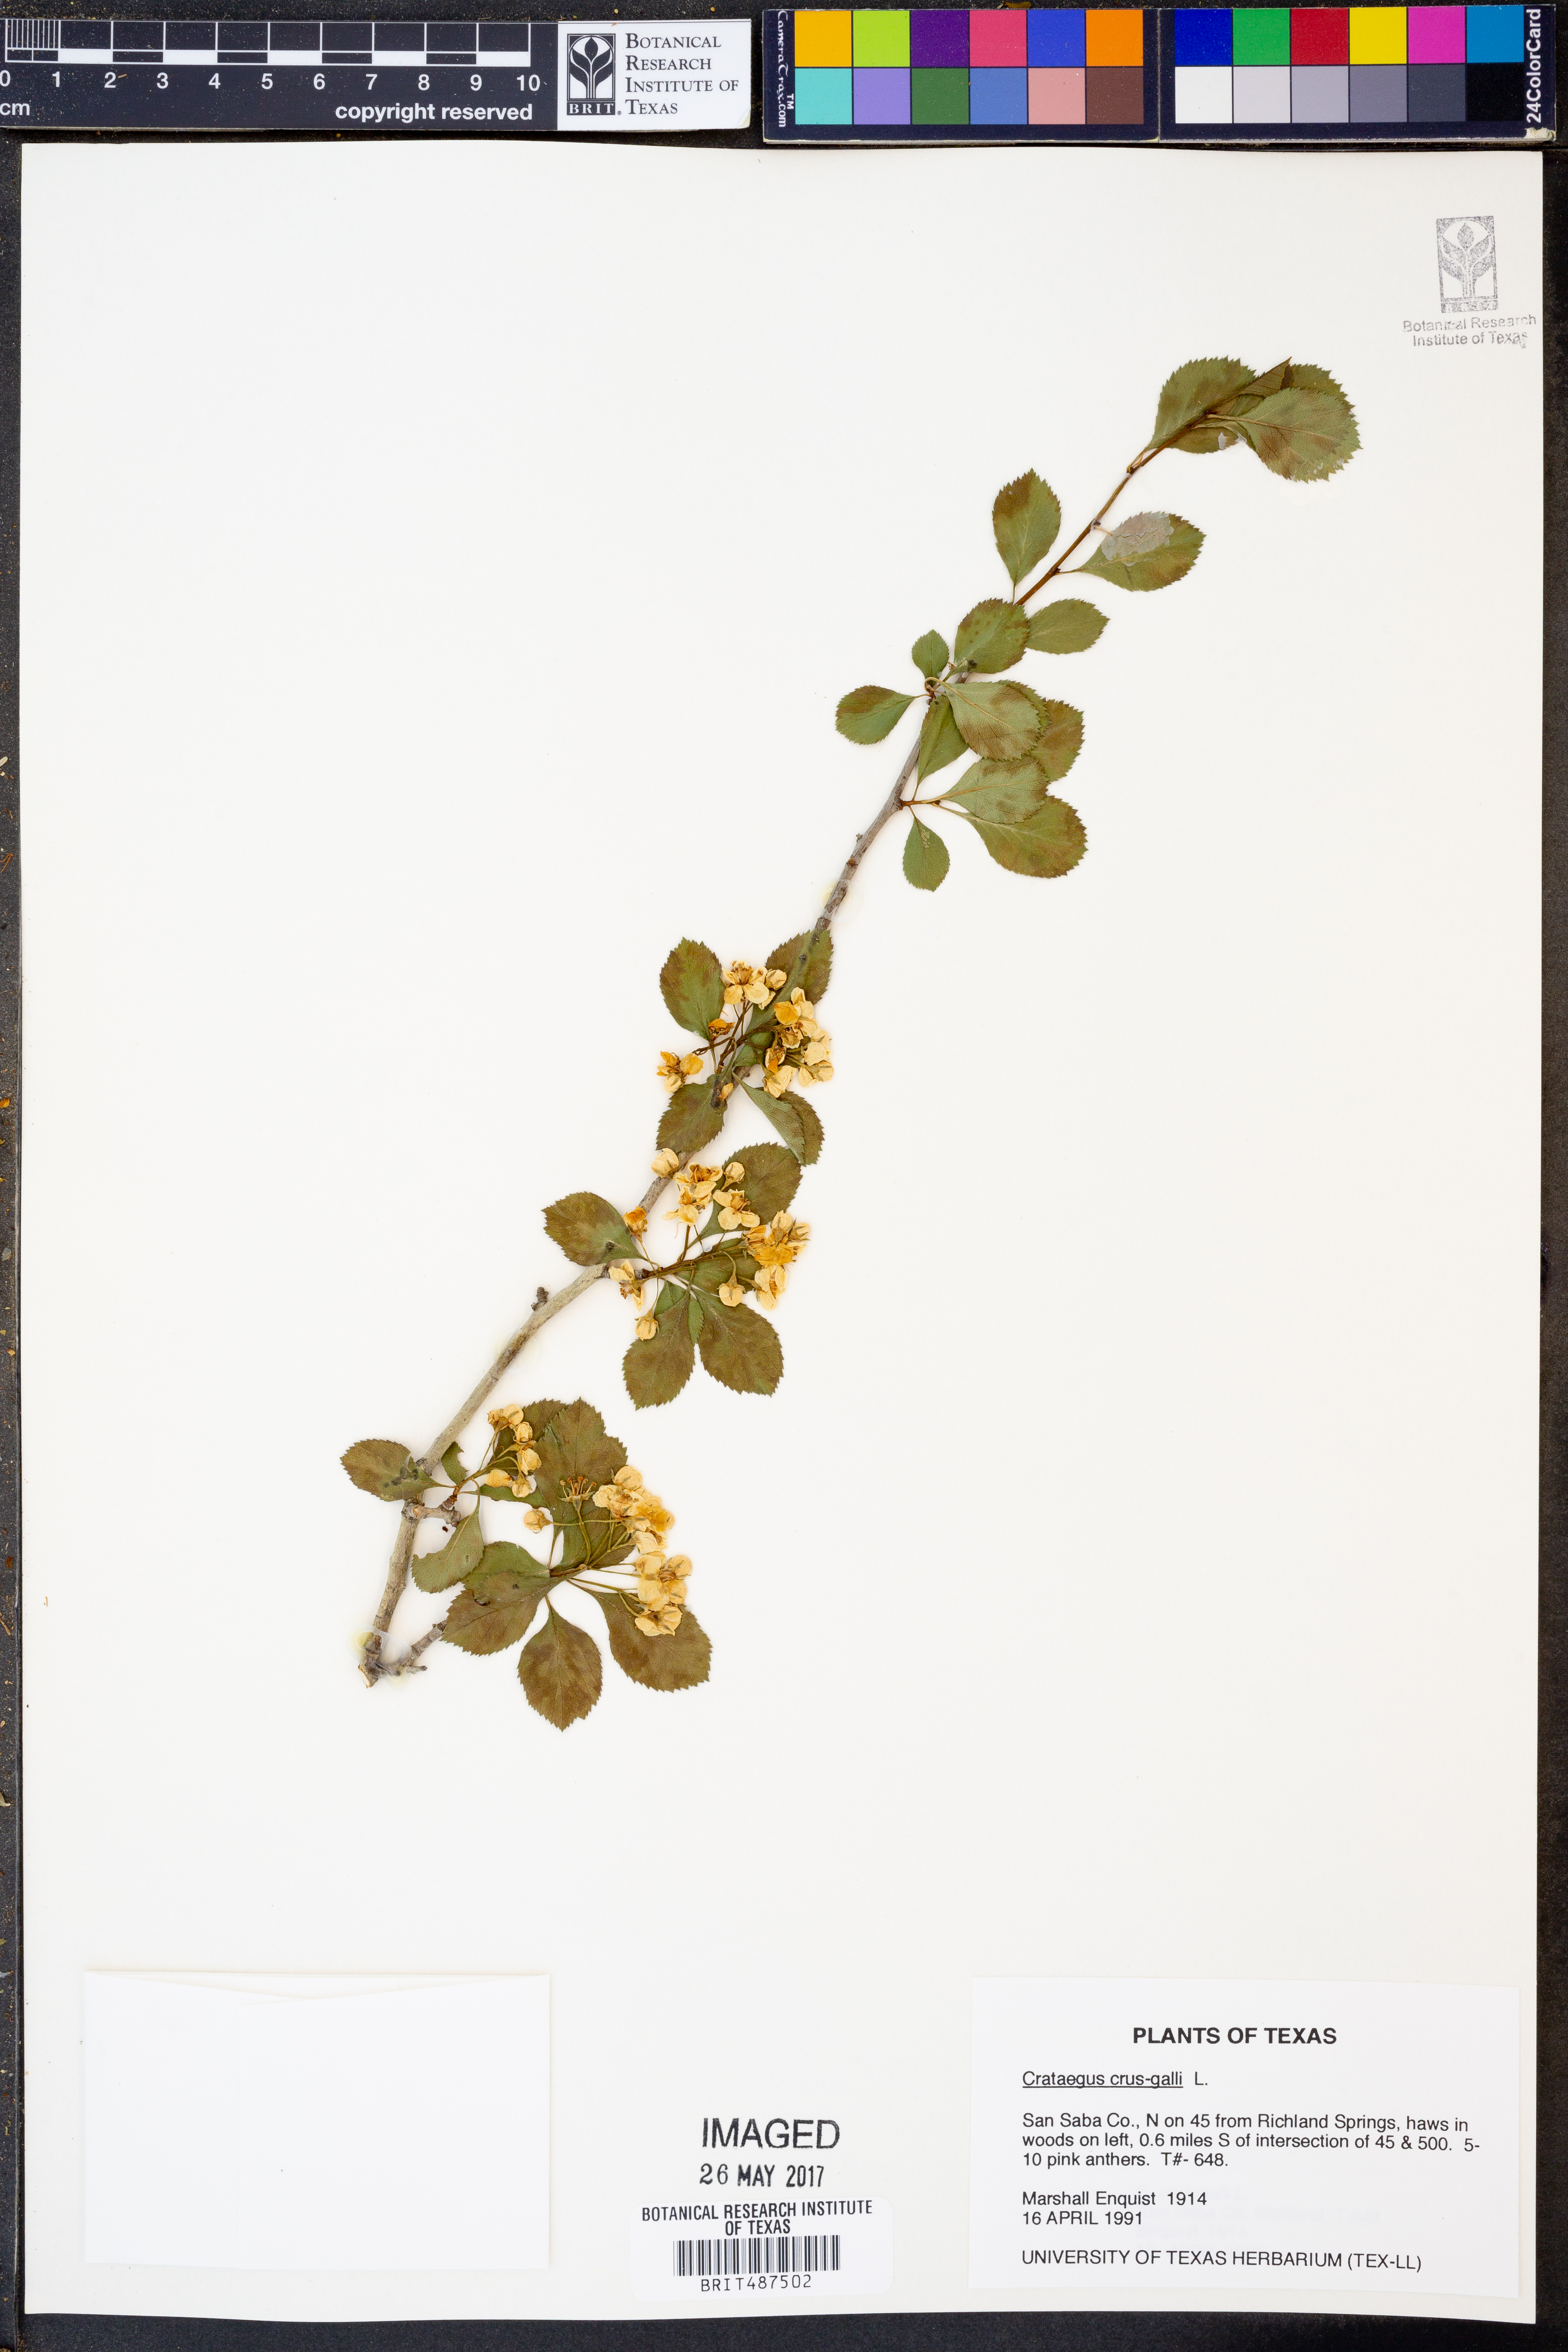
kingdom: Plantae
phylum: Tracheophyta
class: Magnoliopsida
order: Rosales
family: Rosaceae
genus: Crataegus
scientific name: Crataegus crus-galli
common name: Cockspurthorn
